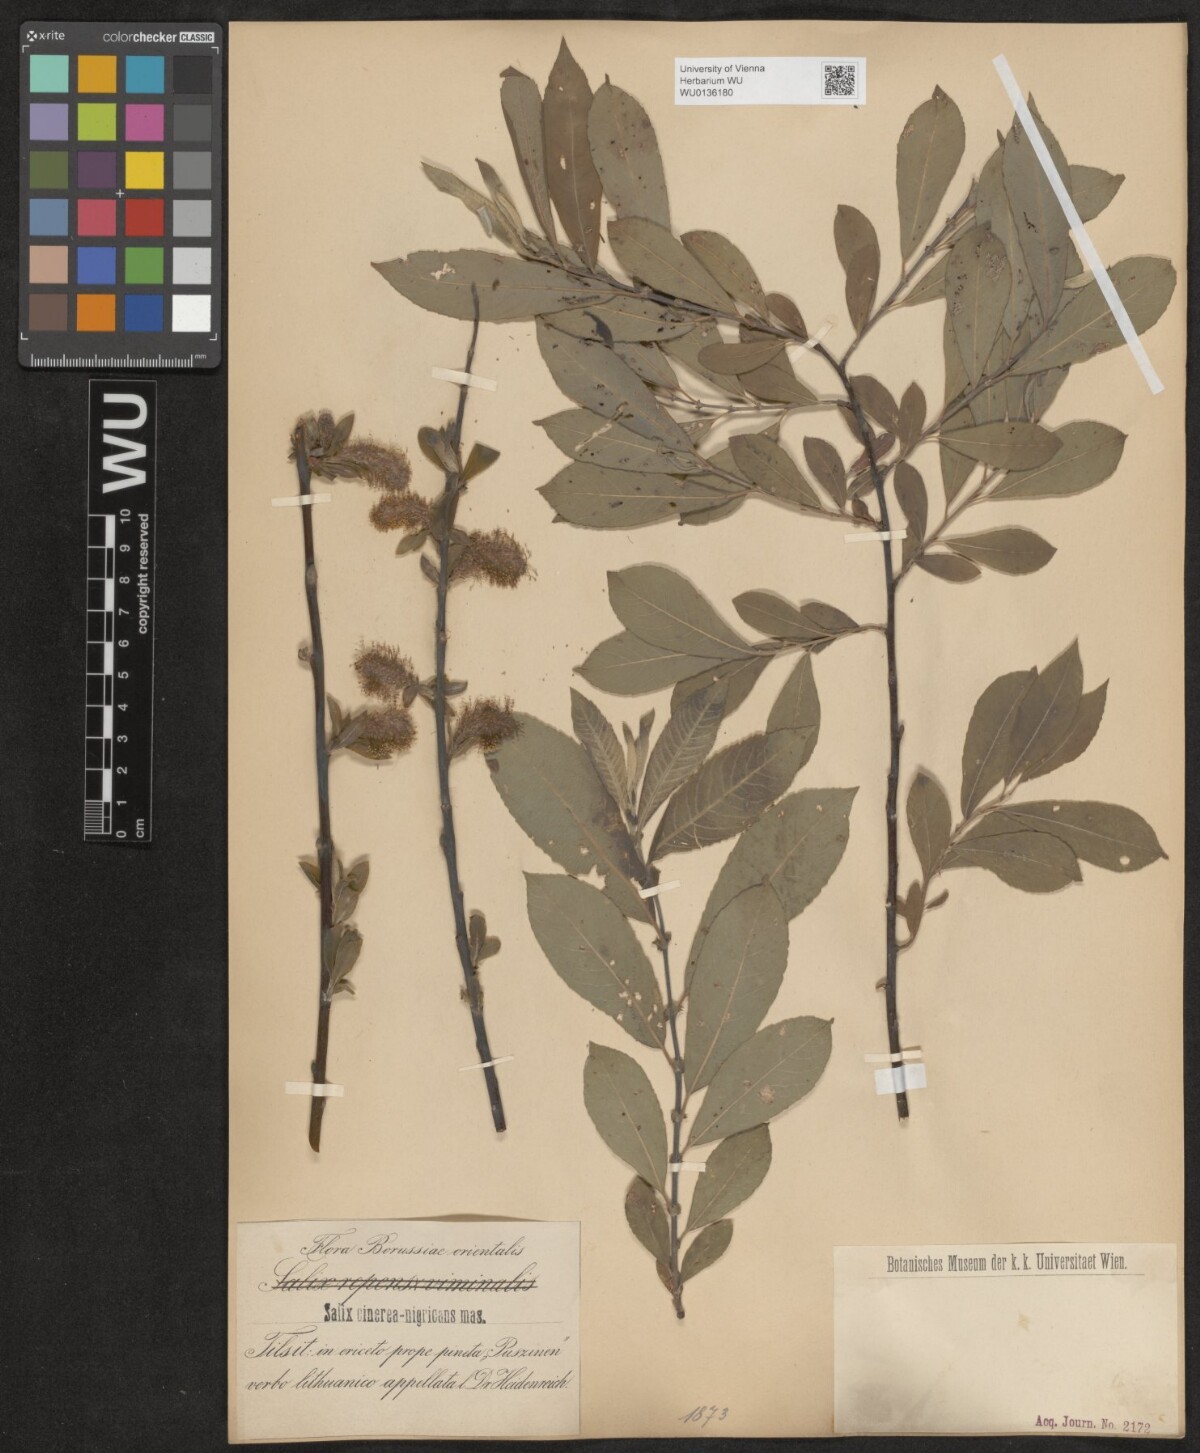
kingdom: Plantae
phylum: Tracheophyta
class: Magnoliopsida
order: Malpighiales
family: Salicaceae
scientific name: Salicaceae
